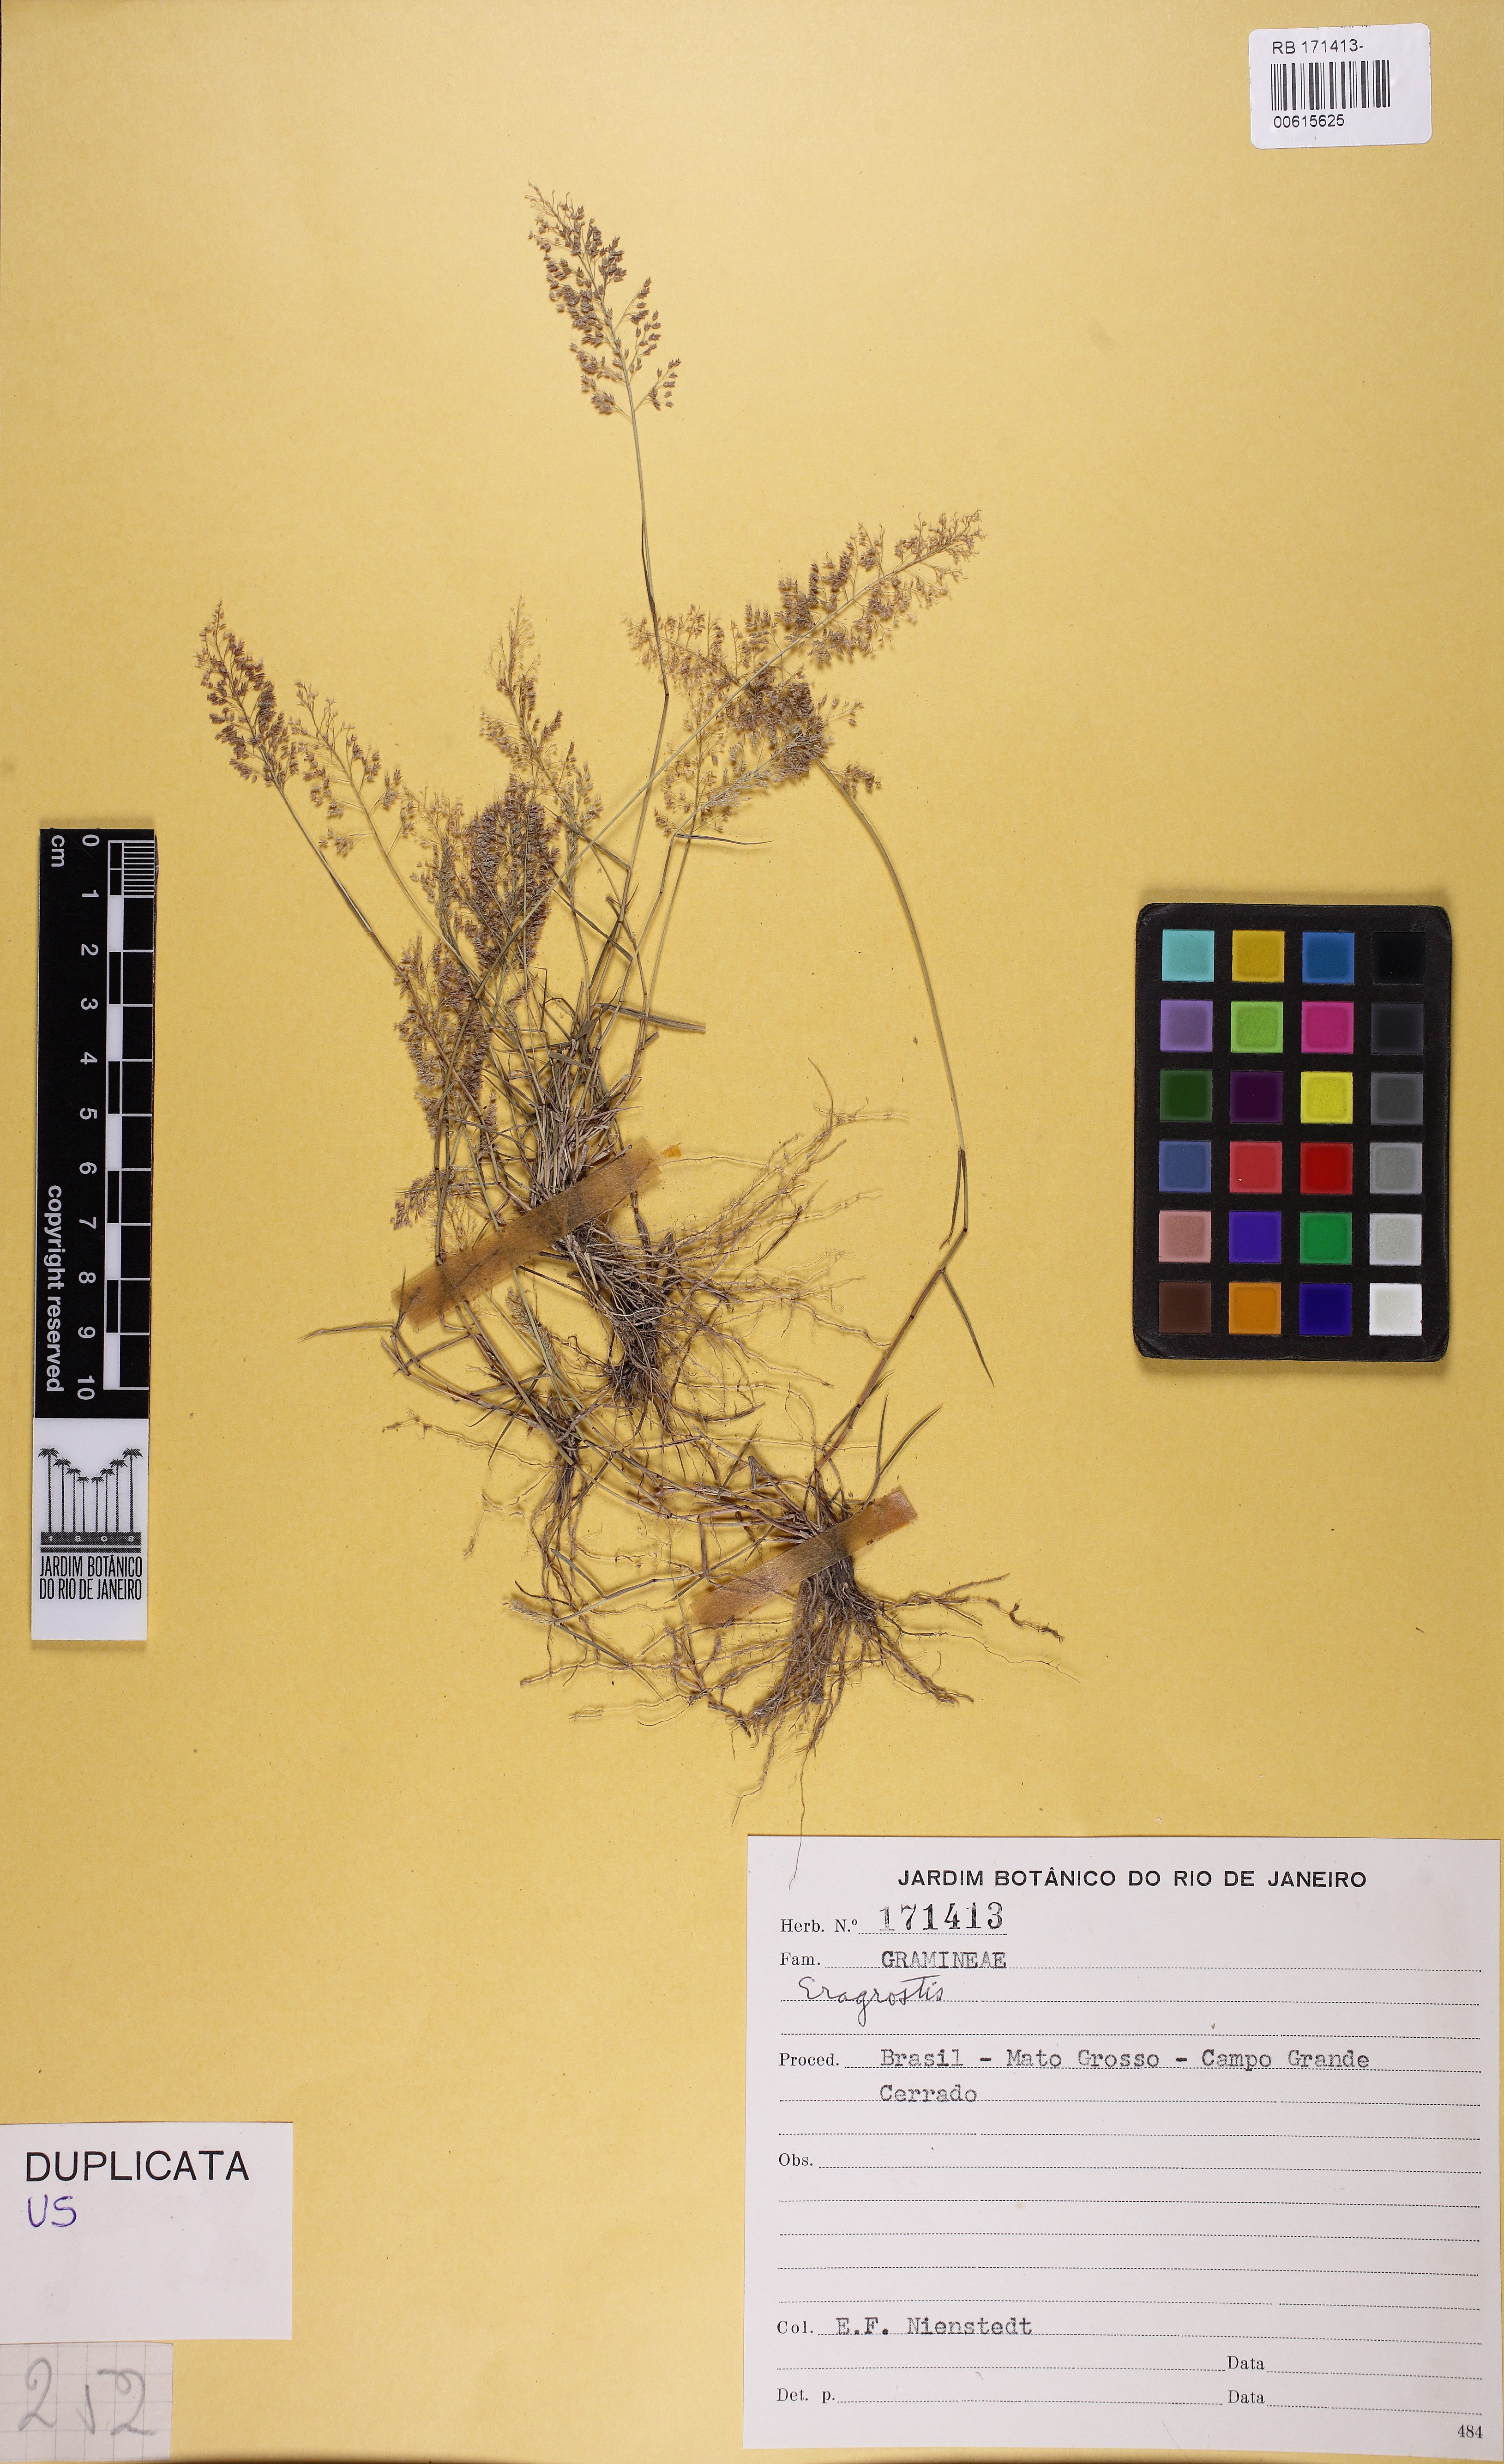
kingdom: Plantae
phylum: Tracheophyta
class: Liliopsida
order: Poales
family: Poaceae
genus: Eragrostis
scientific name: Eragrostis tenella
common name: Japanese lovegrass
